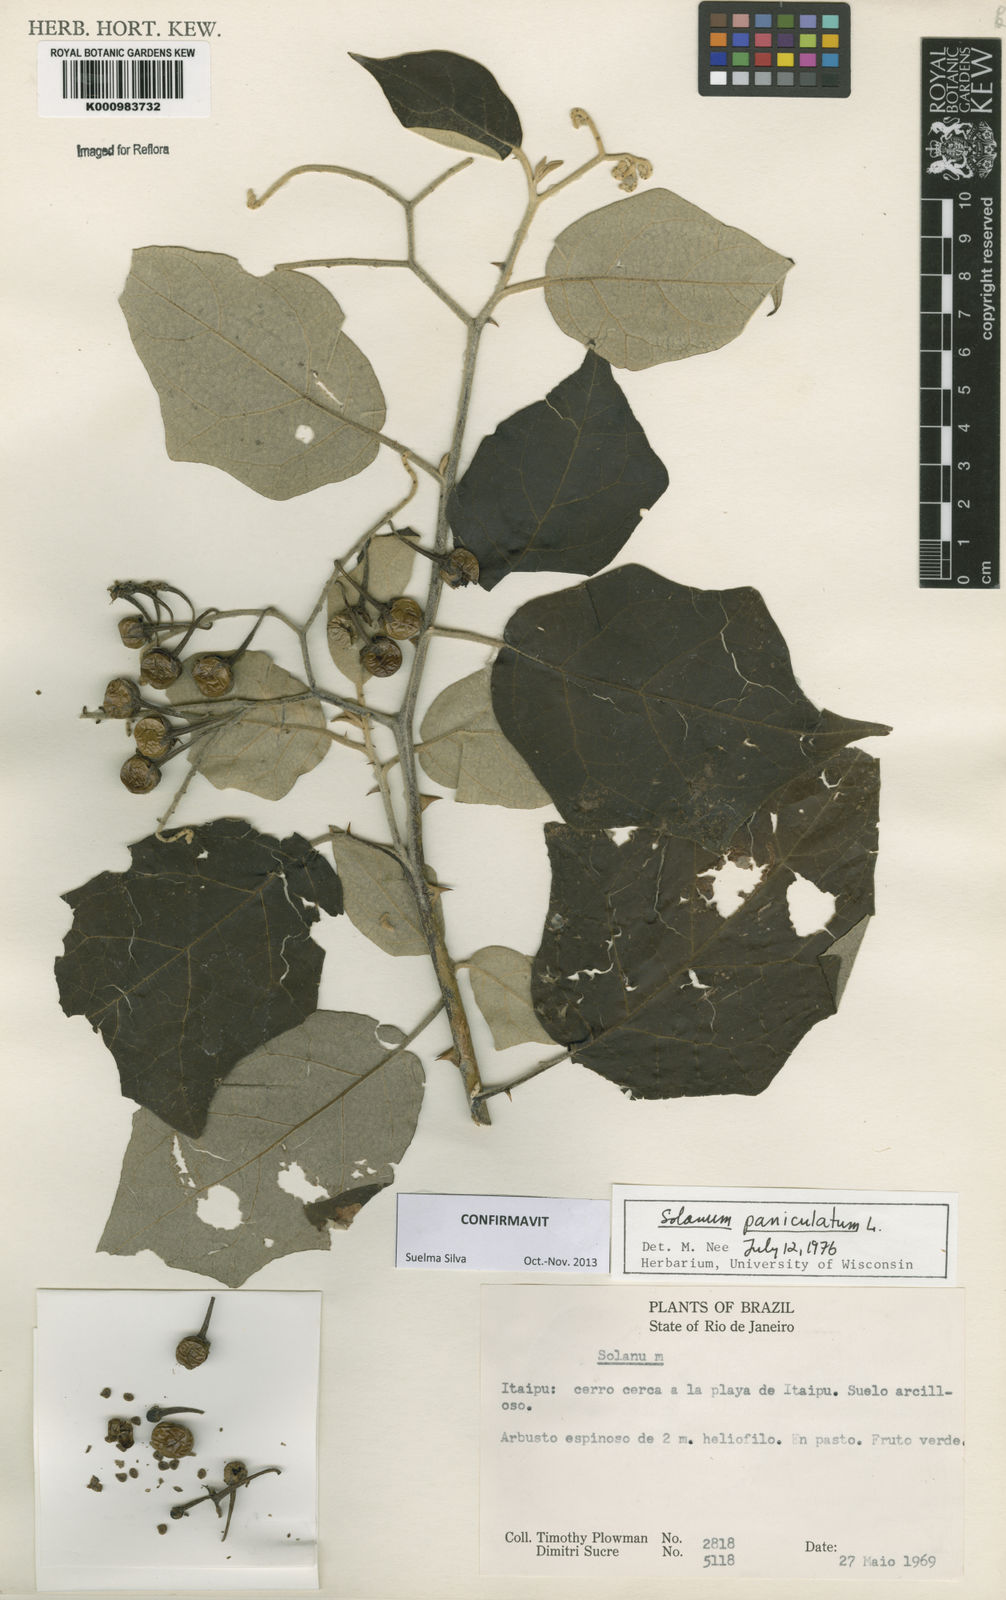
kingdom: Plantae
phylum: Tracheophyta
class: Magnoliopsida
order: Solanales
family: Solanaceae
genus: Solanum
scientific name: Solanum paniculatum
